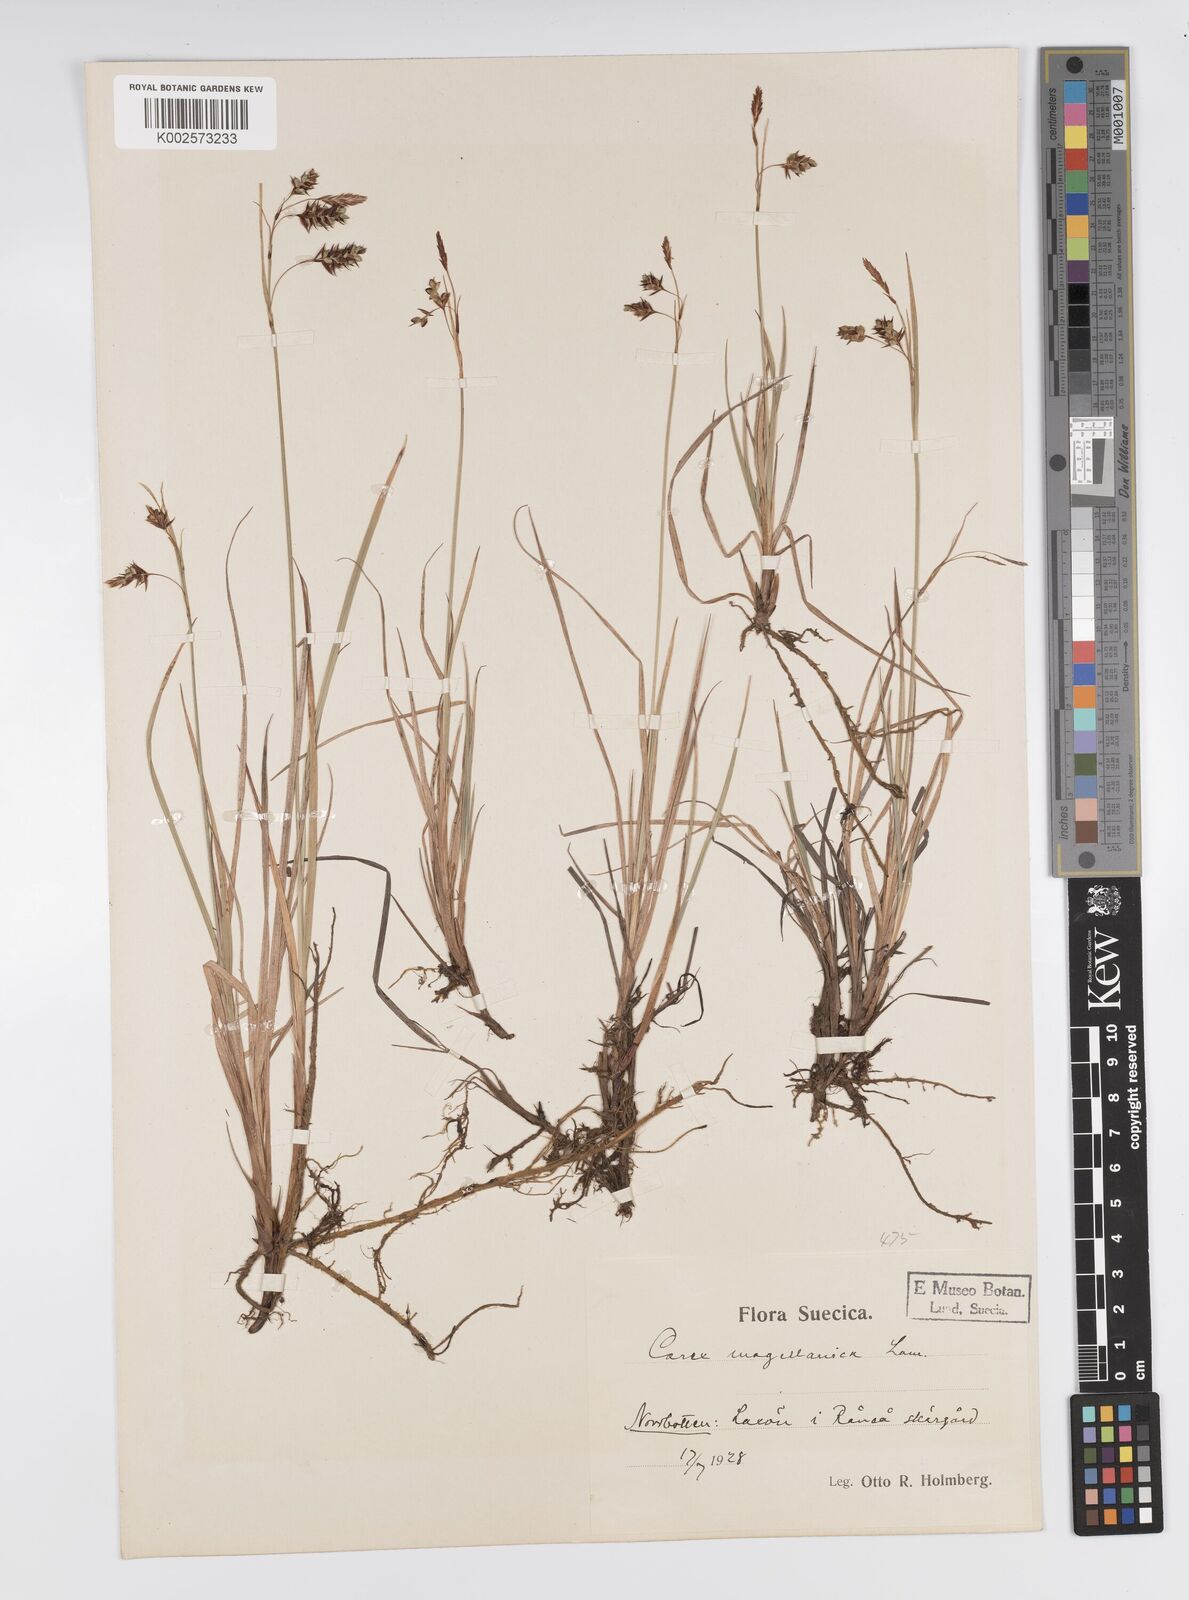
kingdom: Plantae
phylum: Tracheophyta
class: Liliopsida
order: Poales
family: Cyperaceae
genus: Carex
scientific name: Carex magellanica
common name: Bog sedge
